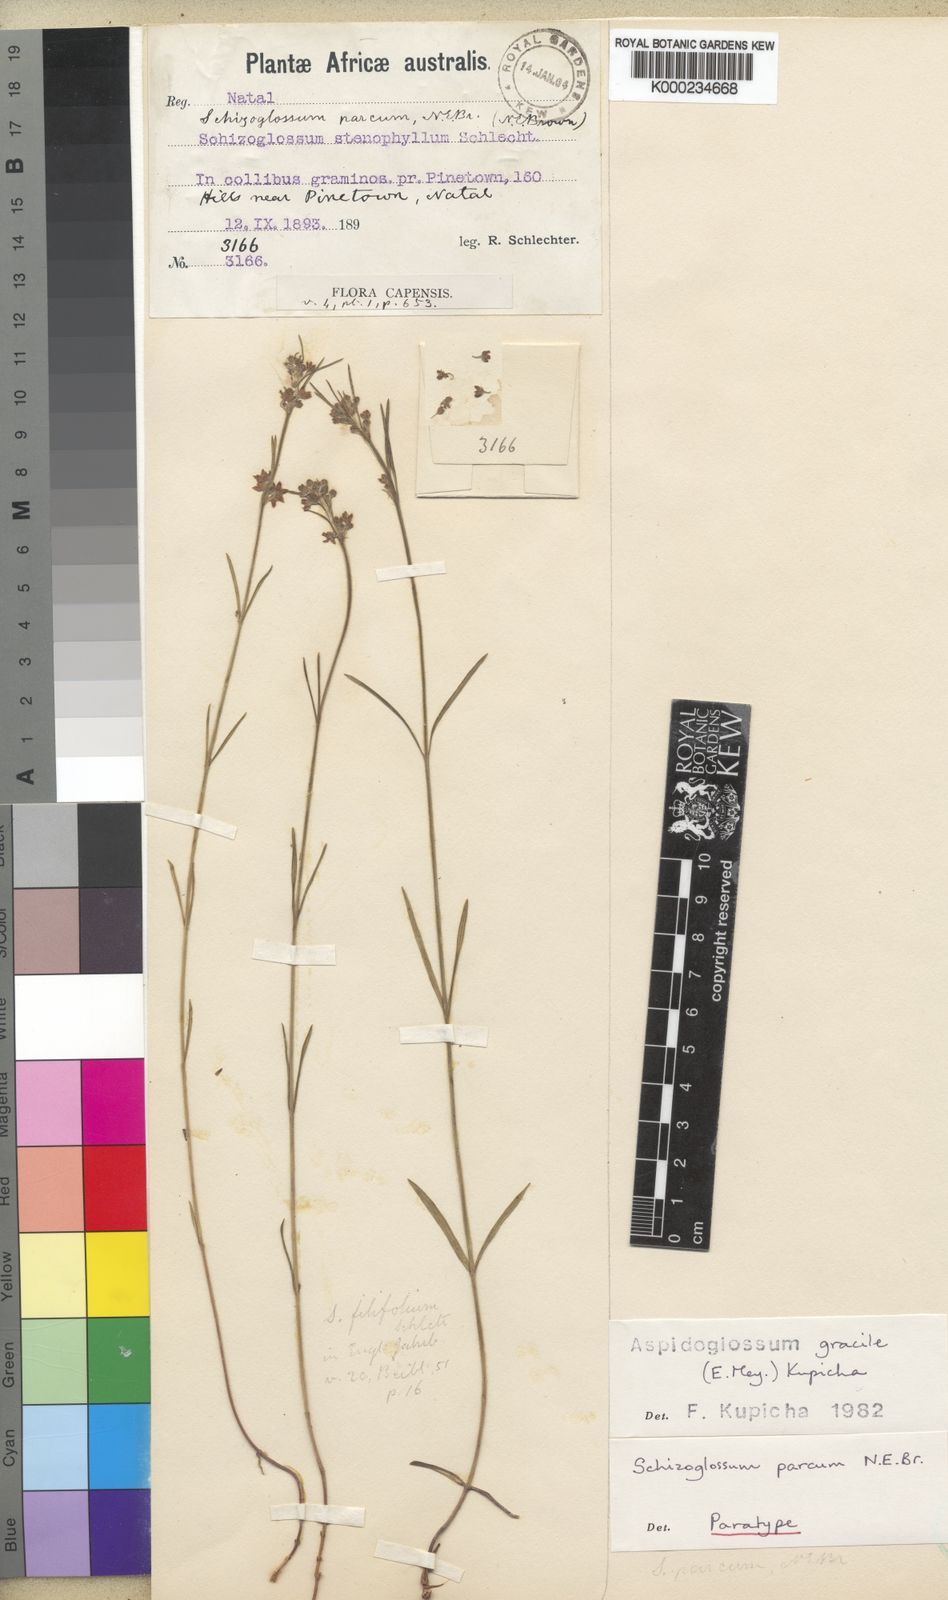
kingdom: Plantae
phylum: Tracheophyta
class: Magnoliopsida
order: Gentianales
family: Apocynaceae
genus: Aspidoglossum
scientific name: Aspidoglossum gracile
